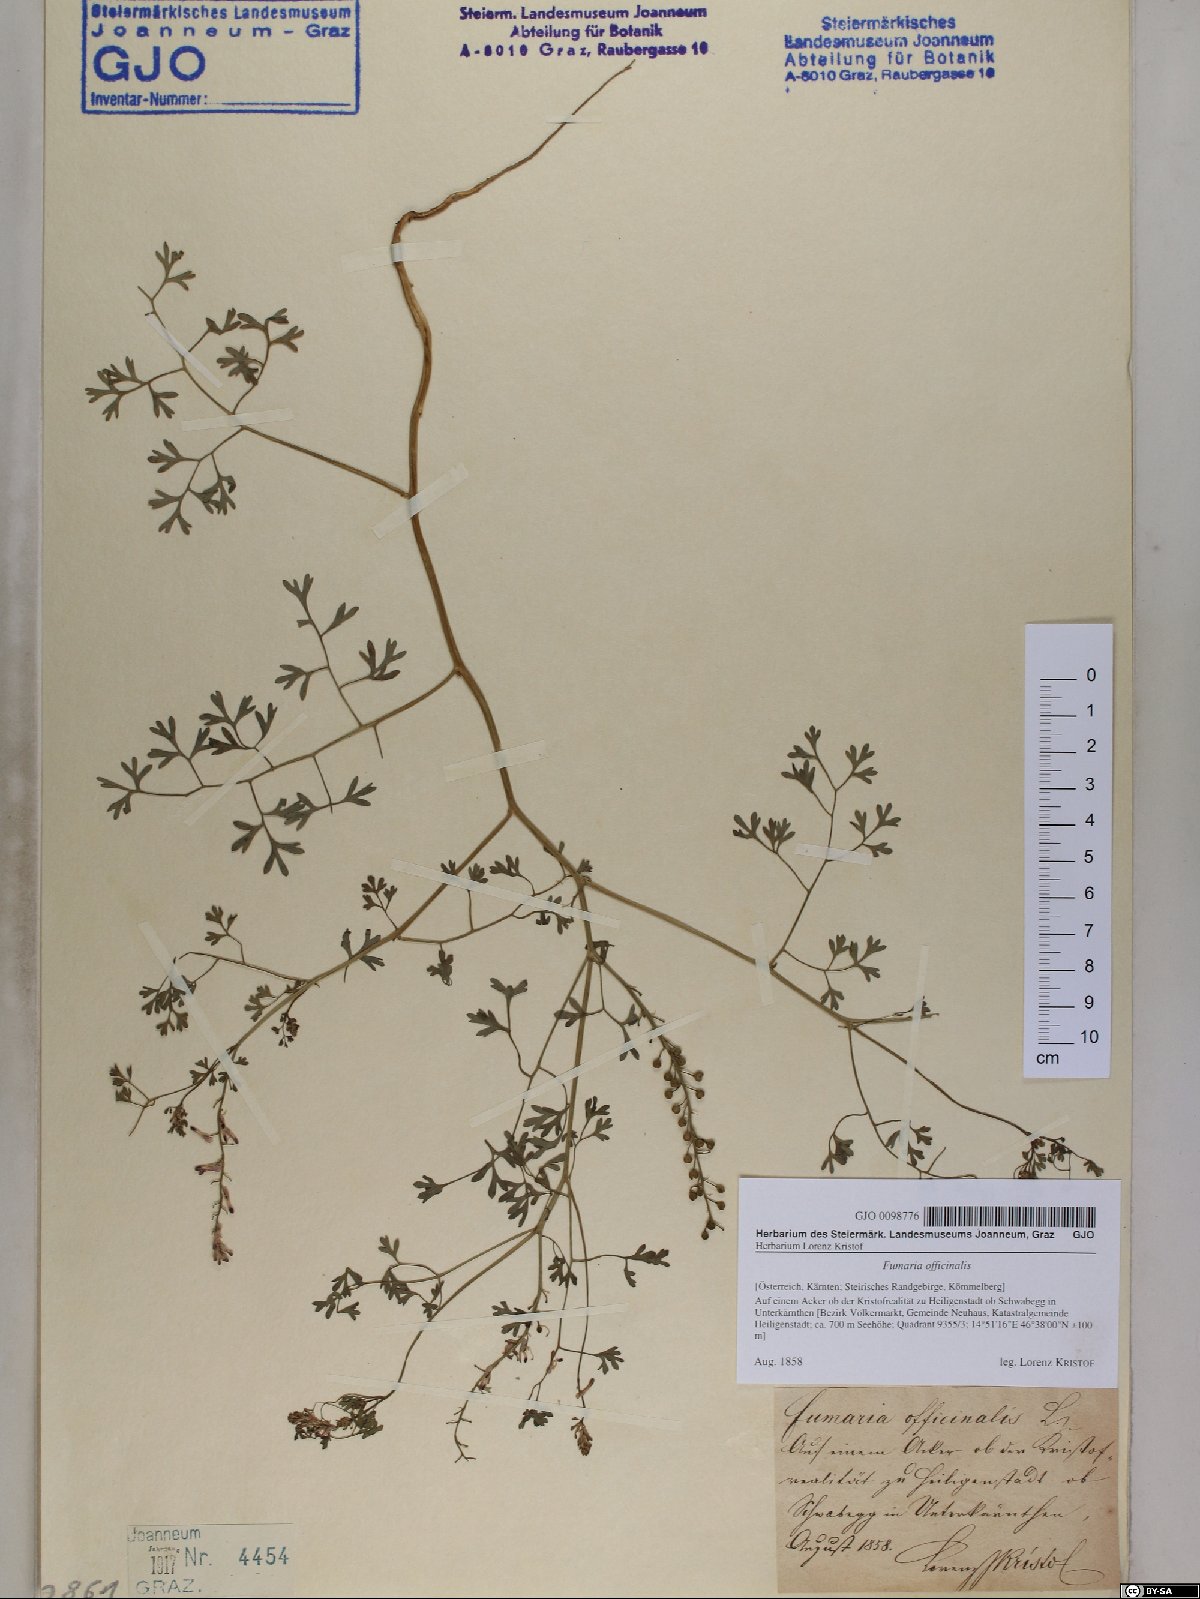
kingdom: Plantae
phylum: Tracheophyta
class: Magnoliopsida
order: Ranunculales
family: Papaveraceae
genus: Fumaria
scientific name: Fumaria officinalis
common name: Common fumitory
